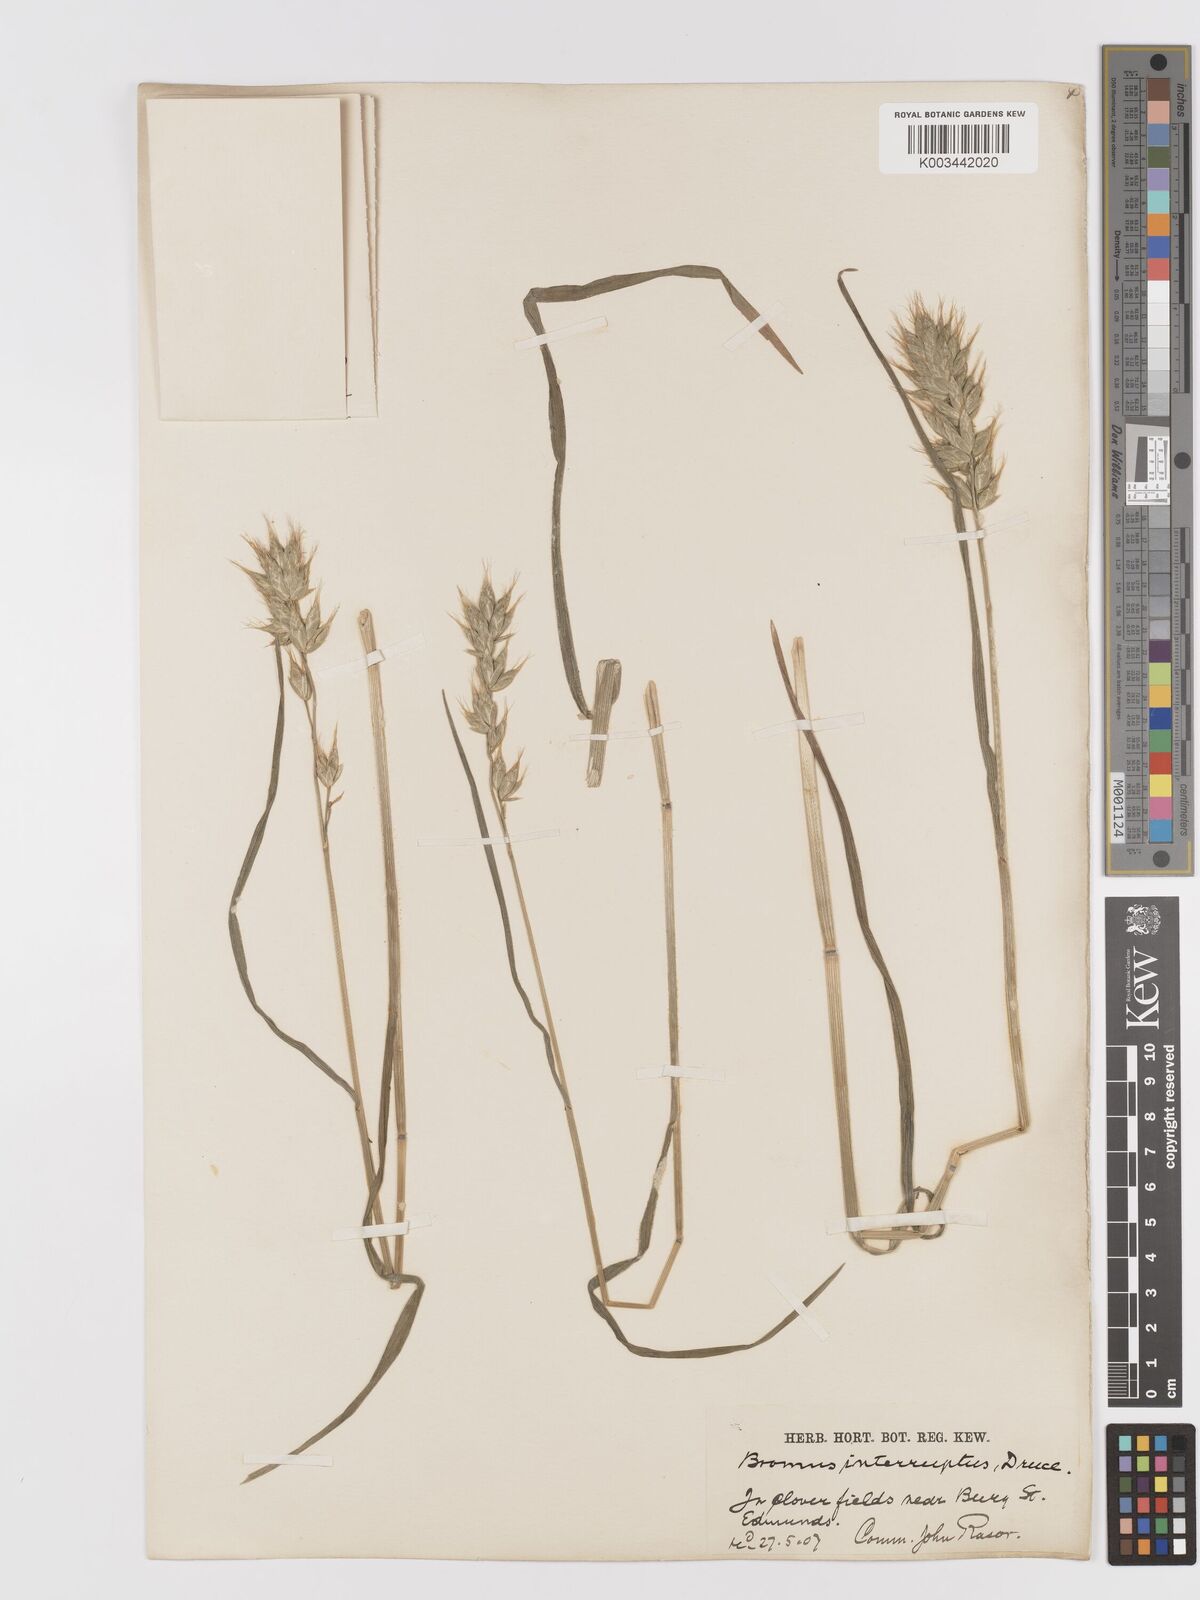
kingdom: Plantae
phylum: Tracheophyta
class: Liliopsida
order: Poales
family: Poaceae
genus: Bromus
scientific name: Bromus interruptus
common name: Interrupted brome
